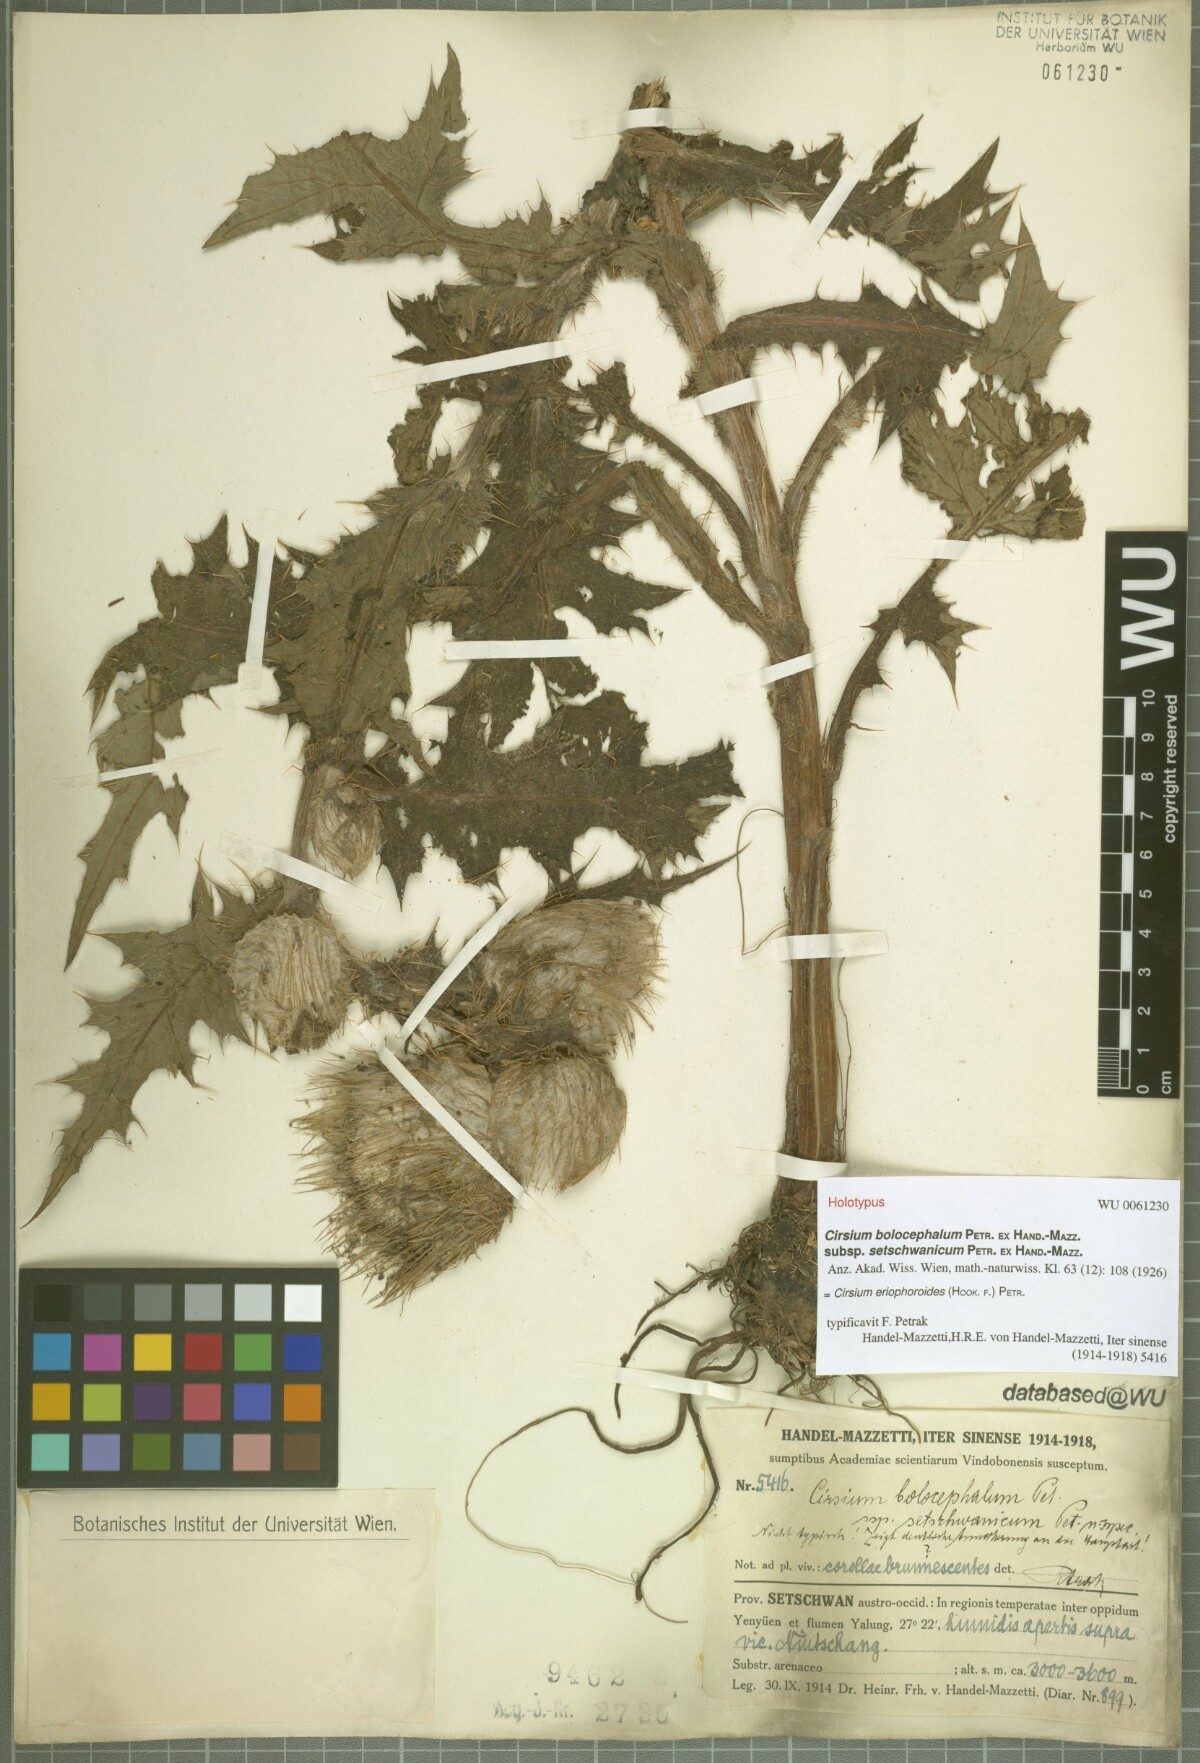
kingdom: Plantae
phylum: Tracheophyta
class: Magnoliopsida
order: Asterales
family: Asteraceae
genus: Cirsium
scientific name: Cirsium eriophoroides
